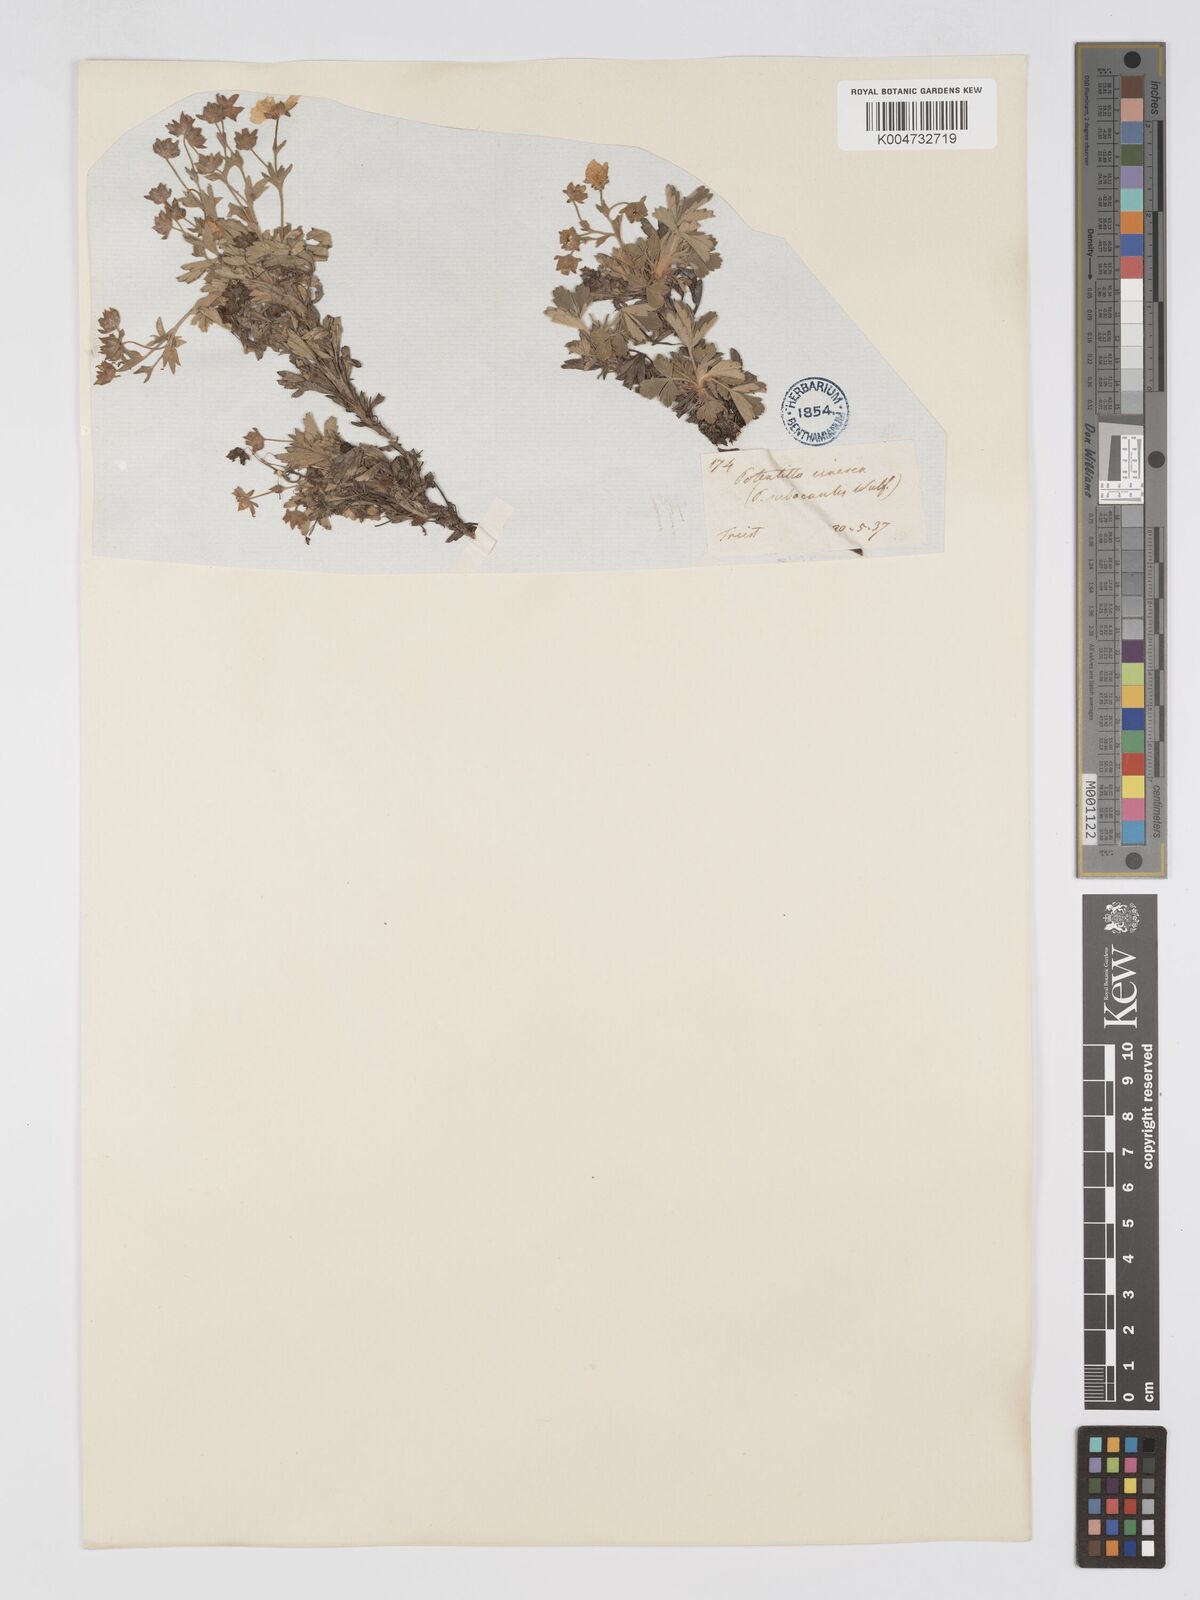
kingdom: Plantae
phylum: Tracheophyta
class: Magnoliopsida
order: Rosales
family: Rosaceae
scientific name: Rosaceae
